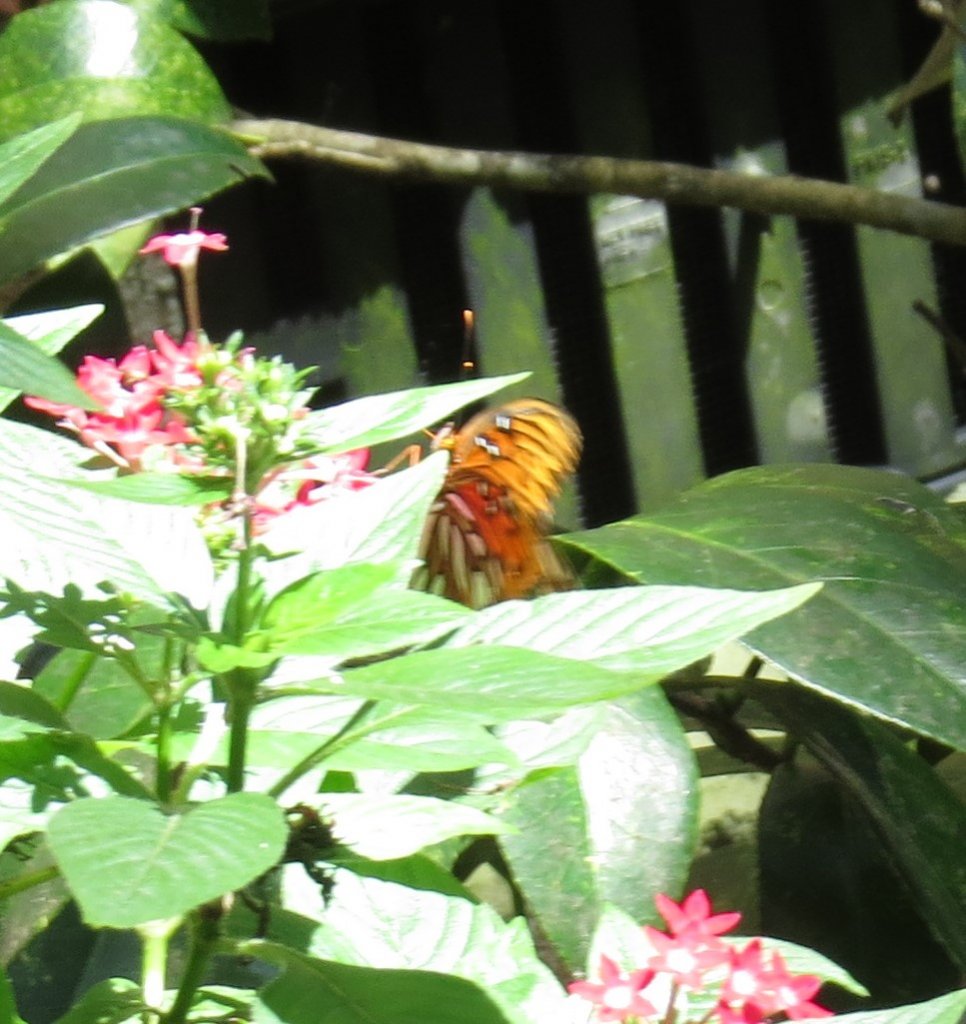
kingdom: Animalia
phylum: Arthropoda
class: Insecta
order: Lepidoptera
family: Nymphalidae
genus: Dione
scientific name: Dione vanillae
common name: Gulf Fritillary
